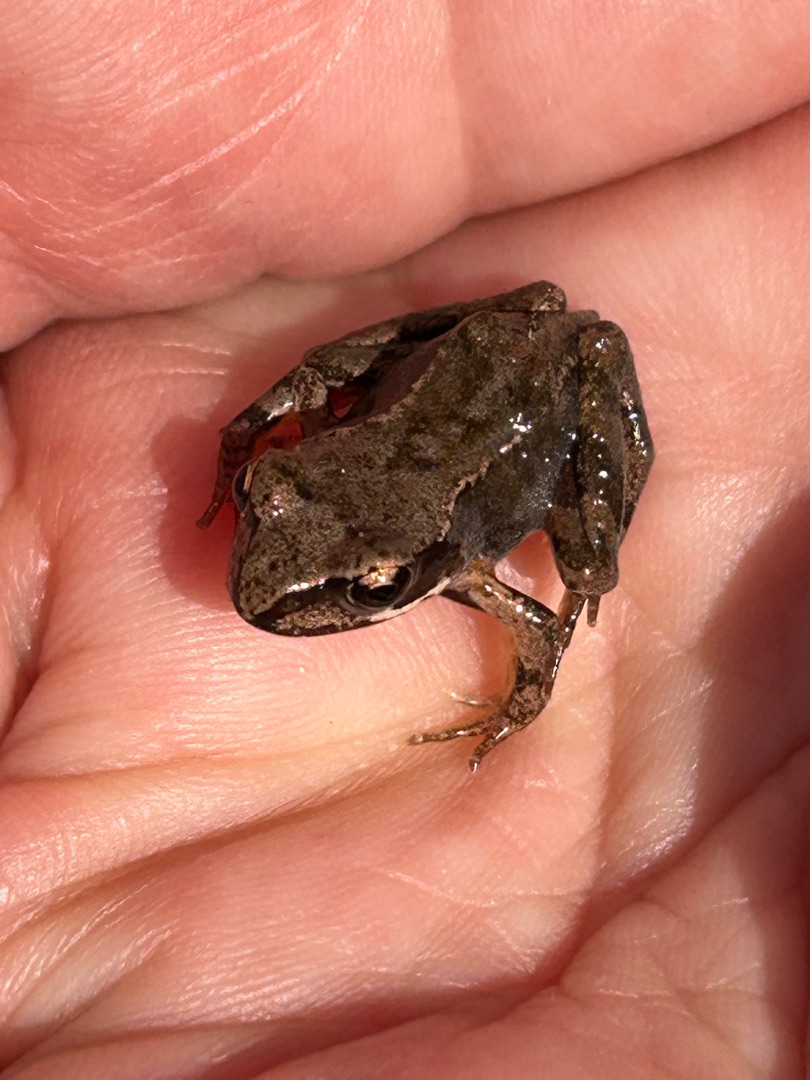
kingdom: Animalia
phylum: Chordata
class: Amphibia
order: Anura
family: Ranidae
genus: Rana
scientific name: Rana temporaria
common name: Butsnudet frø
